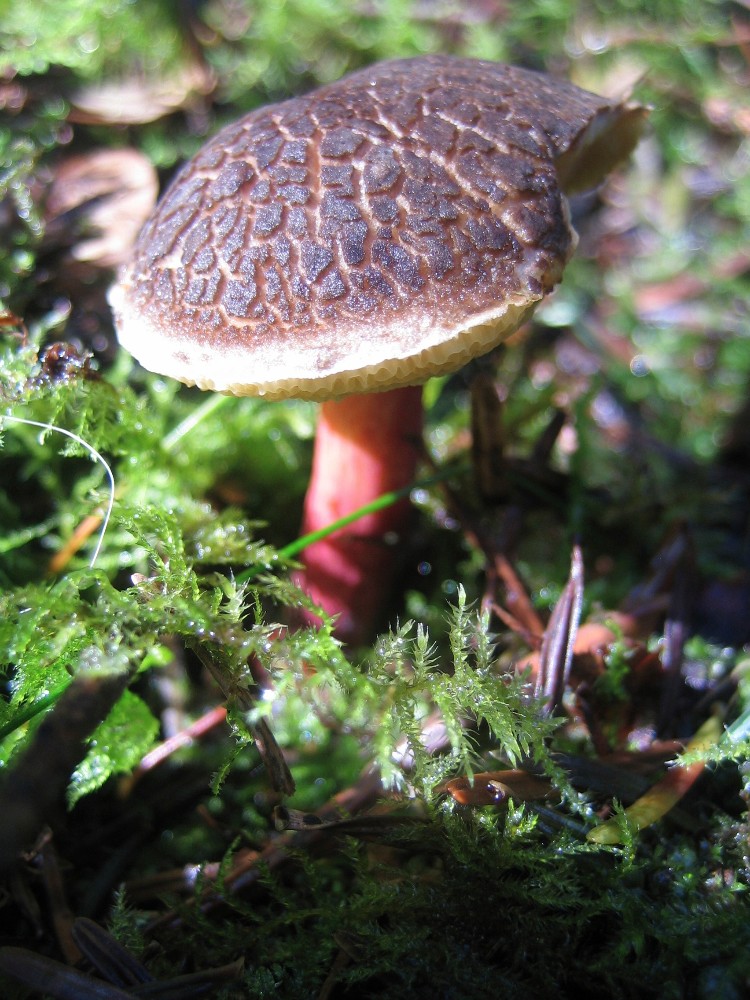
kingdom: Fungi
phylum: Basidiomycota
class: Agaricomycetes
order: Boletales
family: Boletaceae
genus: Xerocomellus
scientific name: Xerocomellus chrysenteron
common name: rødsprukken rørhat
